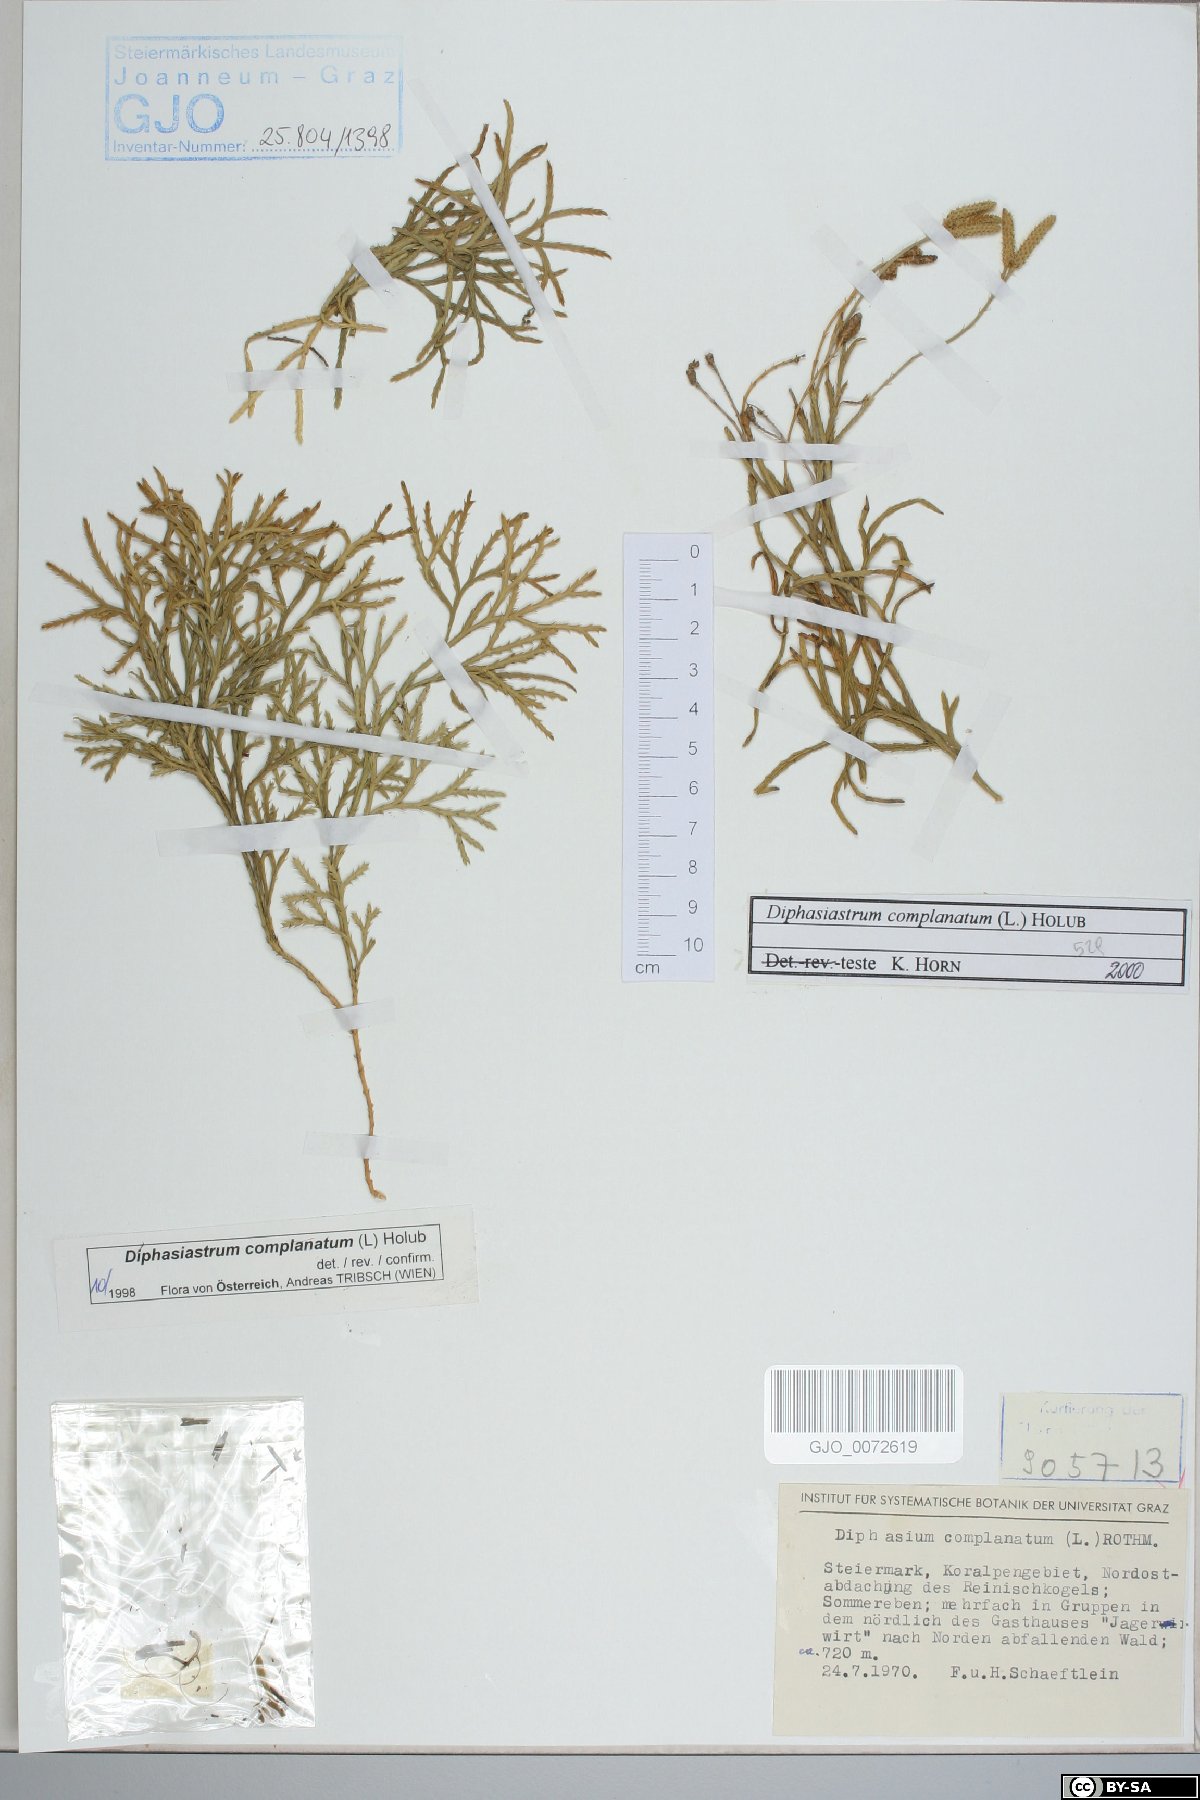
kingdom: Plantae
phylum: Tracheophyta
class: Lycopodiopsida
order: Lycopodiales
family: Lycopodiaceae
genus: Diphasiastrum
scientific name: Diphasiastrum complanatum
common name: Northern running-pine
